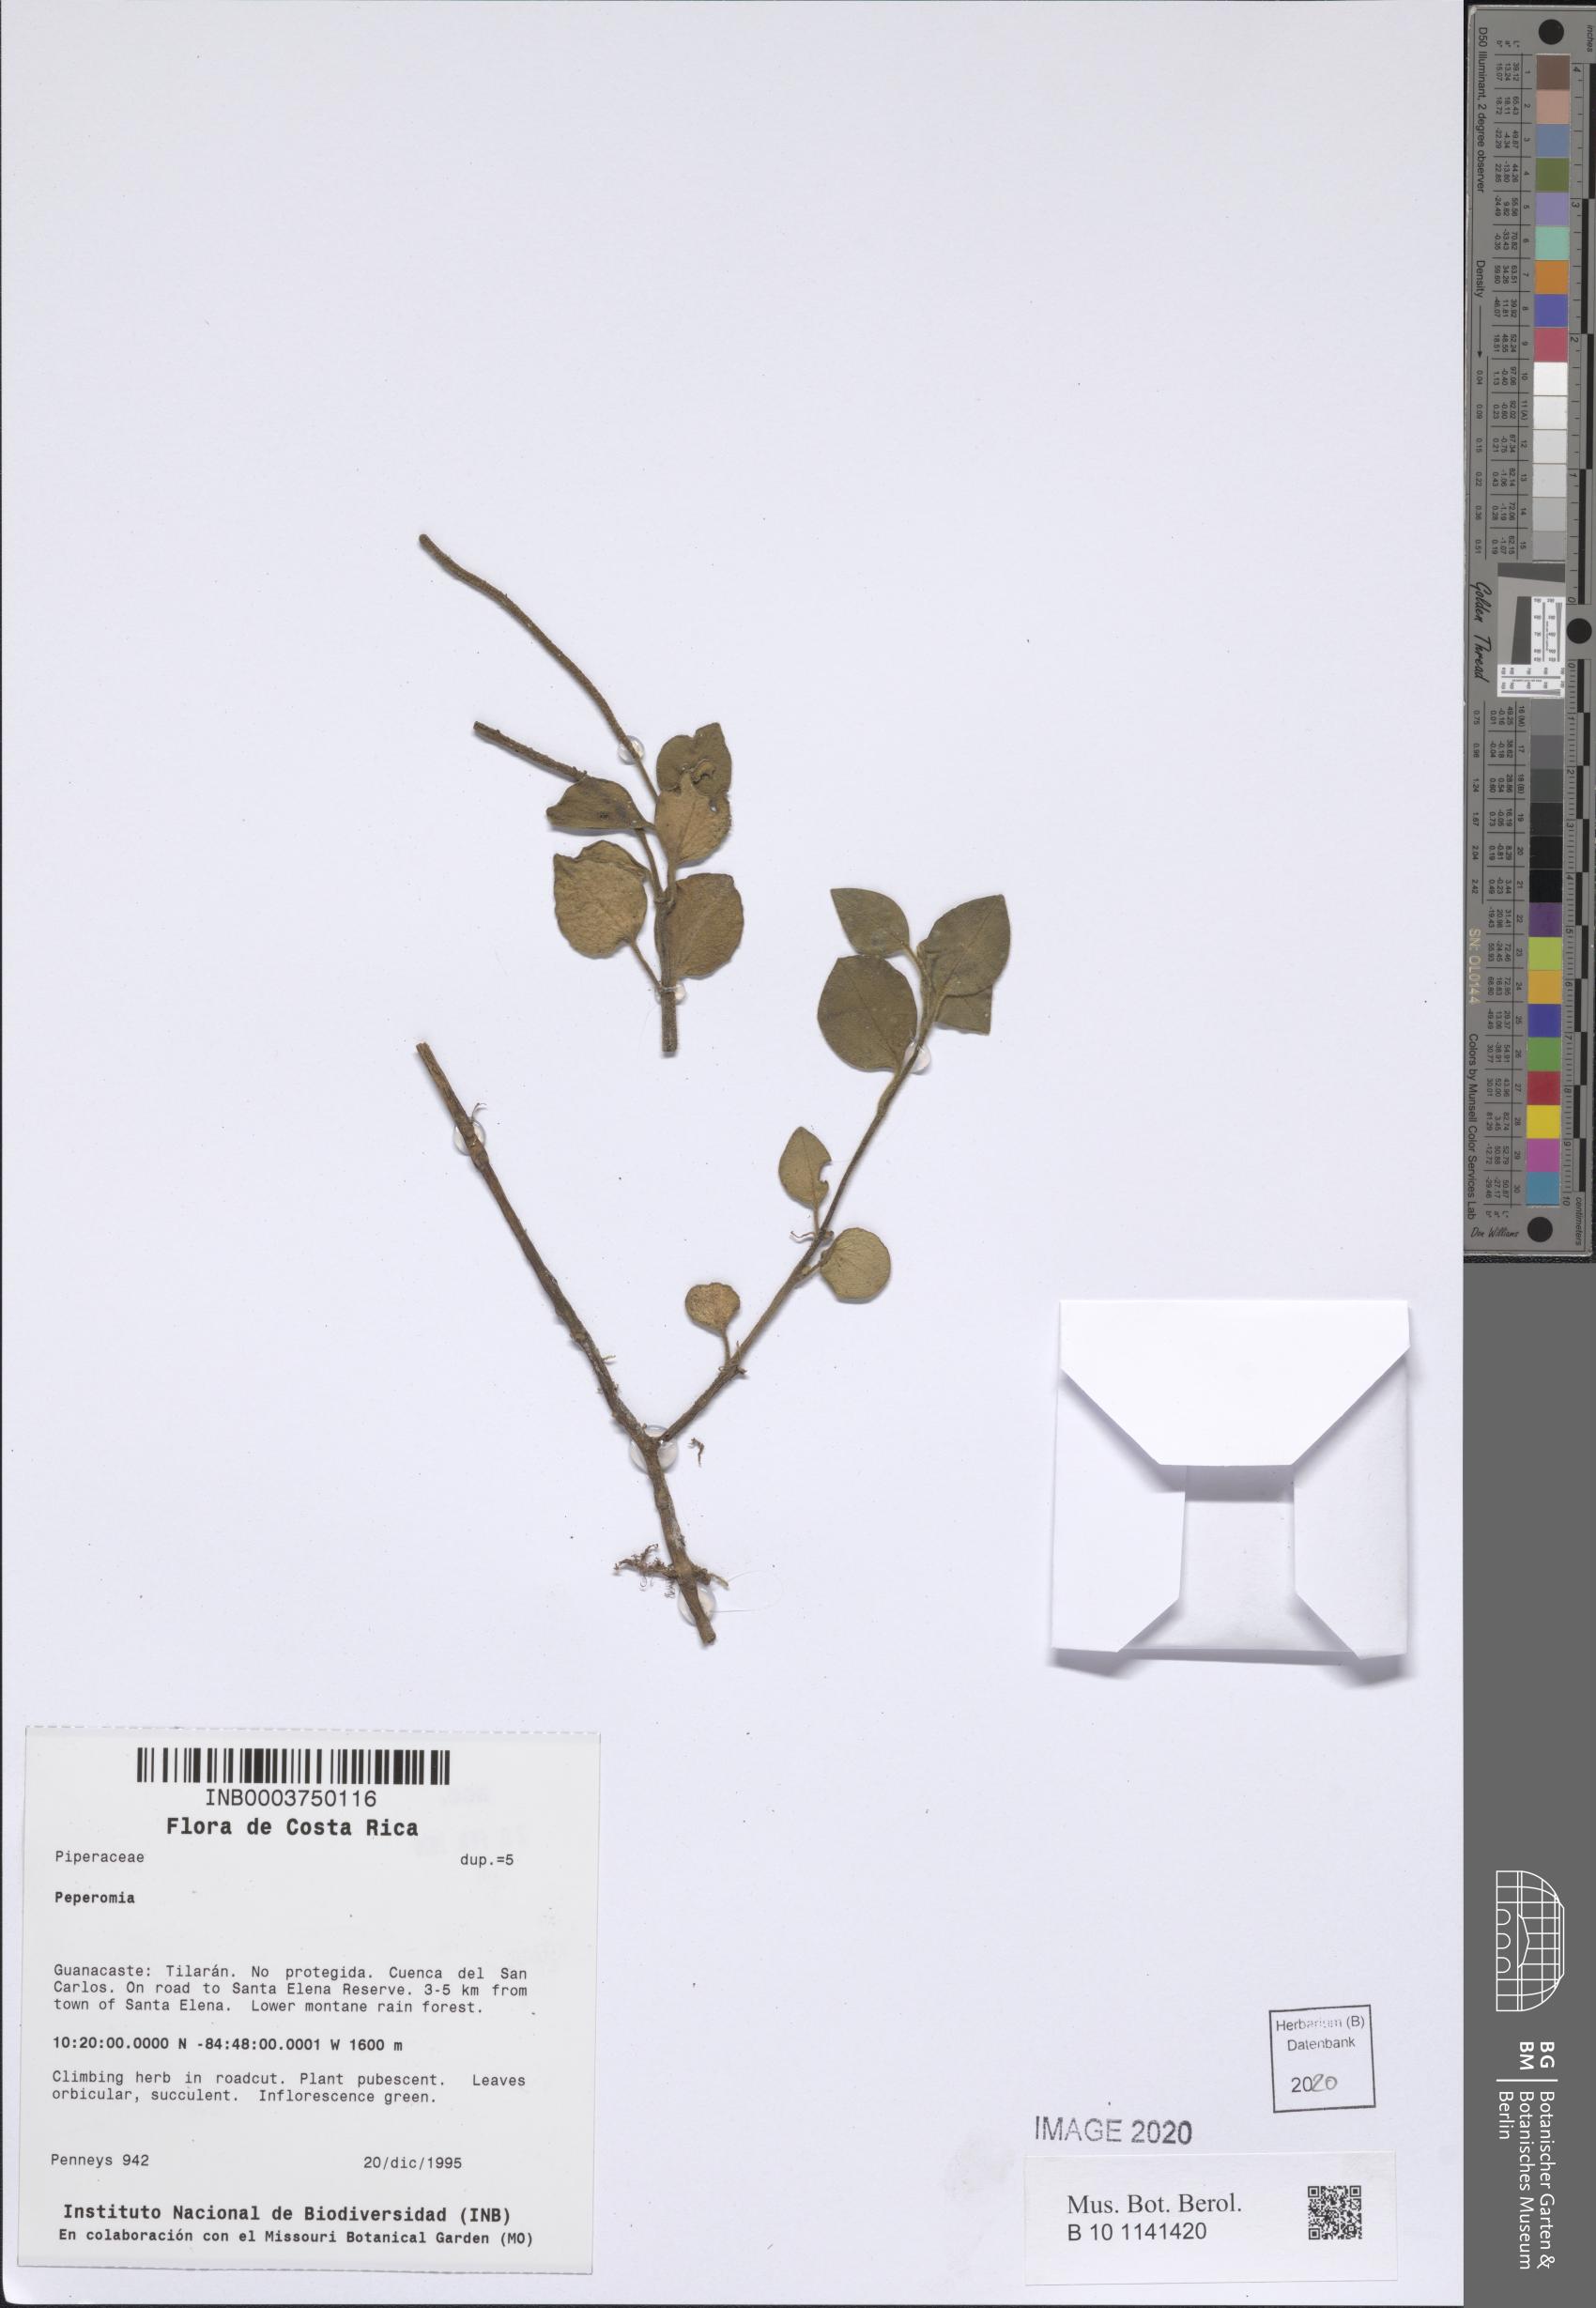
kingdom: Plantae
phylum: Tracheophyta
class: Magnoliopsida
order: Piperales
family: Piperaceae
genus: Peperomia
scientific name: Peperomia
